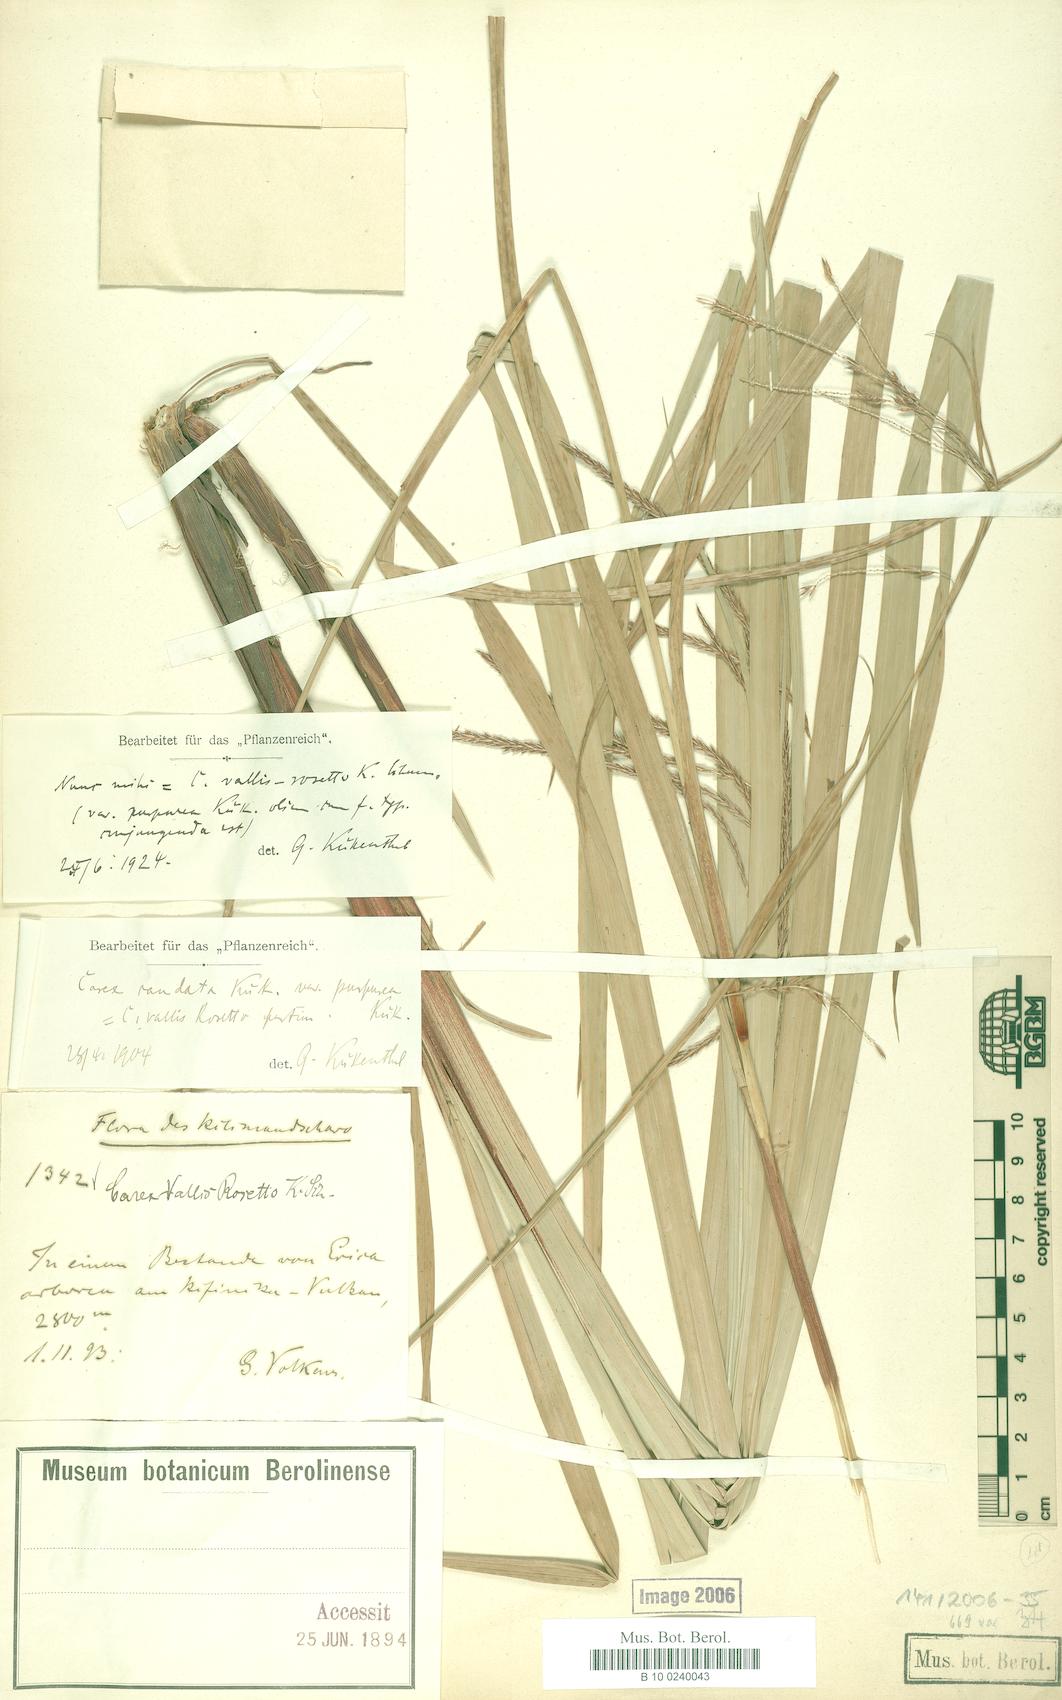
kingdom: Plantae
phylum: Tracheophyta
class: Liliopsida
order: Poales
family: Cyperaceae
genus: Carex
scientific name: Carex greenwayi
